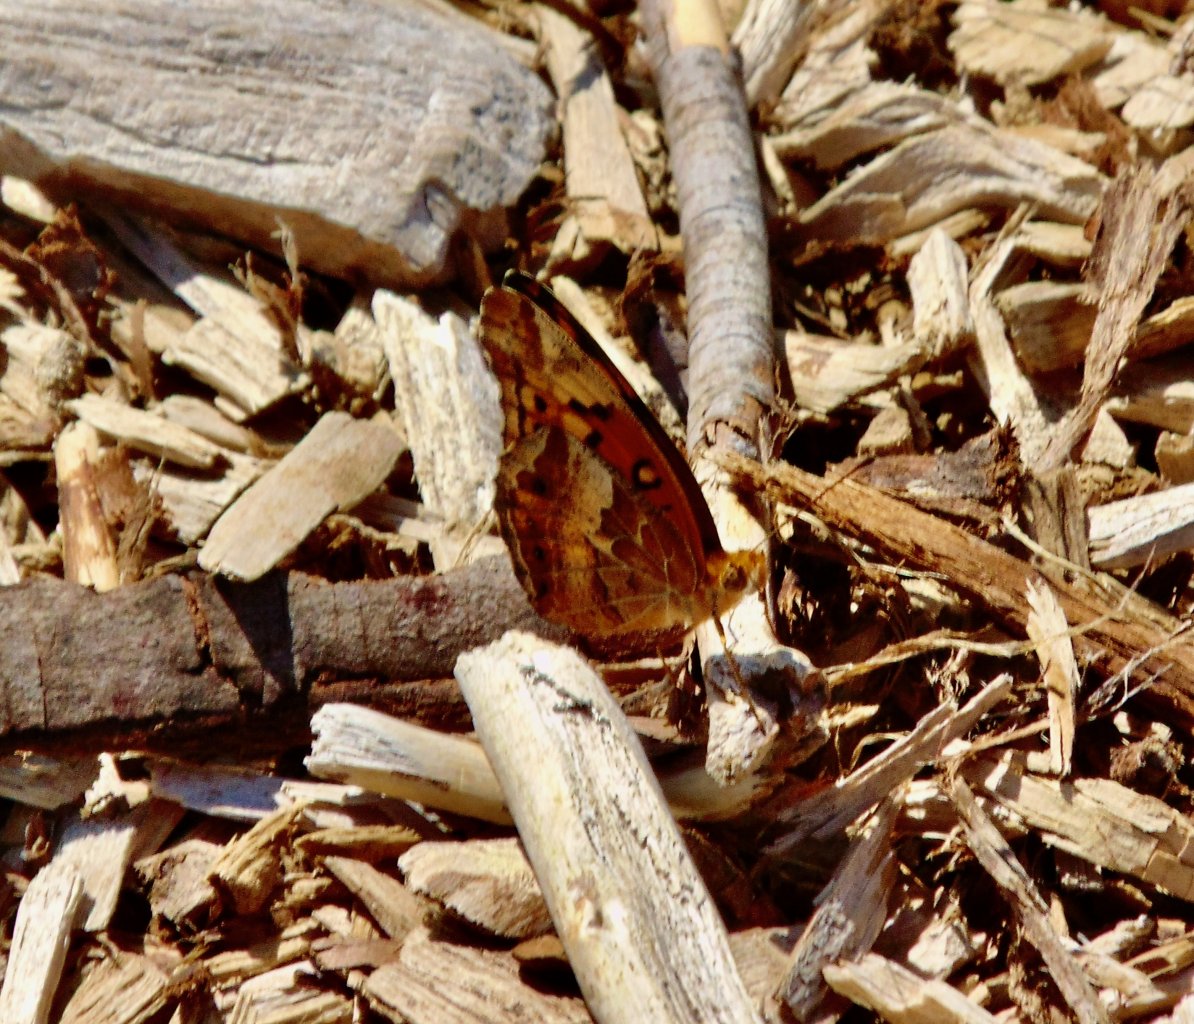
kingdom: Animalia
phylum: Arthropoda
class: Insecta
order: Lepidoptera
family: Nymphalidae
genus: Euptoieta
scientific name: Euptoieta claudia
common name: Variegated Fritillary
